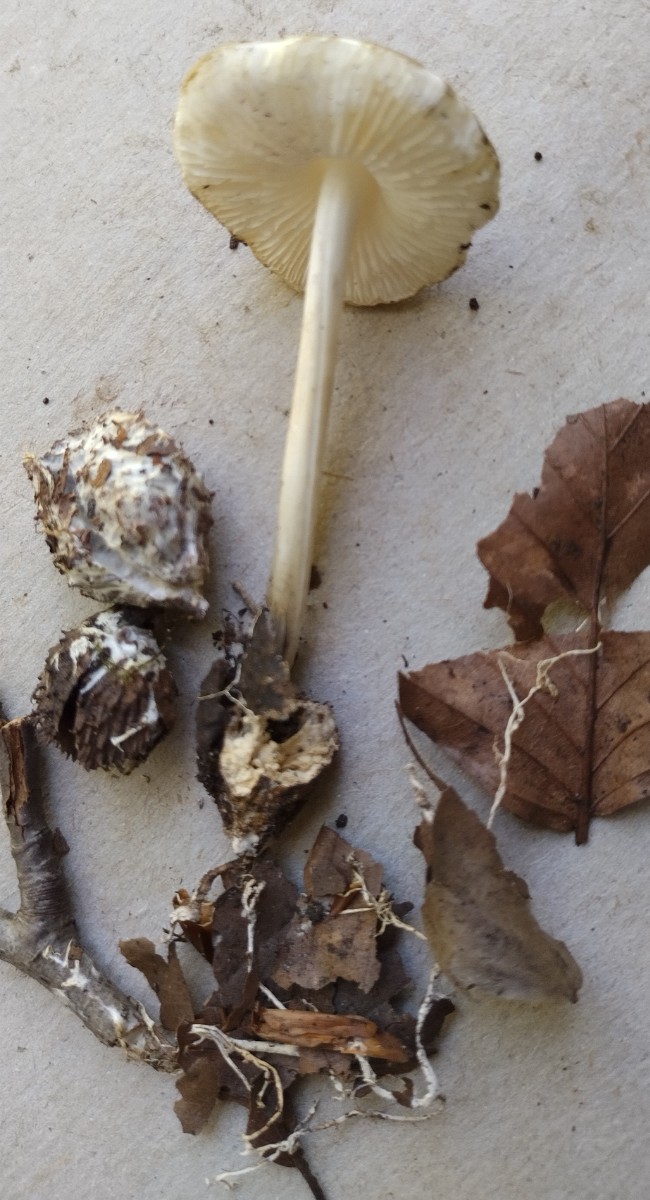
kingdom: Fungi
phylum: Basidiomycota
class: Agaricomycetes
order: Agaricales
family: Porotheleaceae
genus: Hydropodia
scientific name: Hydropodia subalpina
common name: vår-fnugfod
